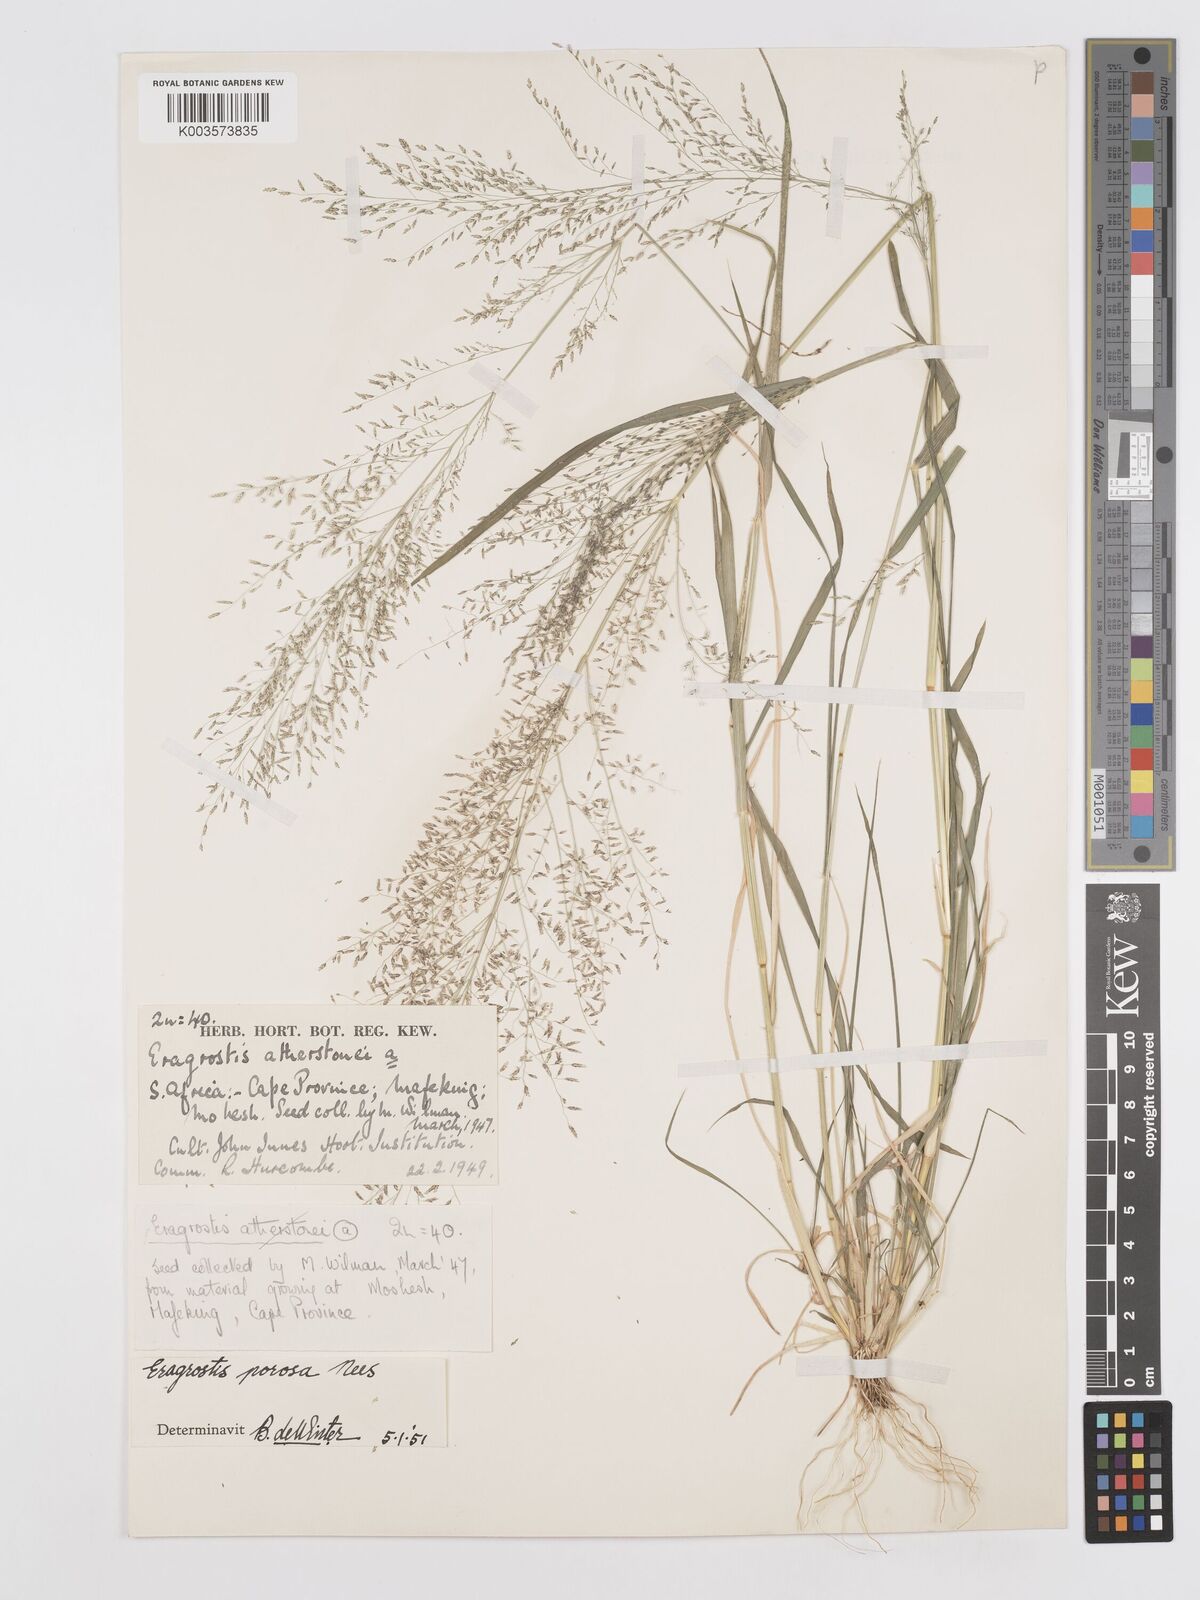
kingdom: Plantae
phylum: Tracheophyta
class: Liliopsida
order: Poales
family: Poaceae
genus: Eragrostis
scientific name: Eragrostis porosa
